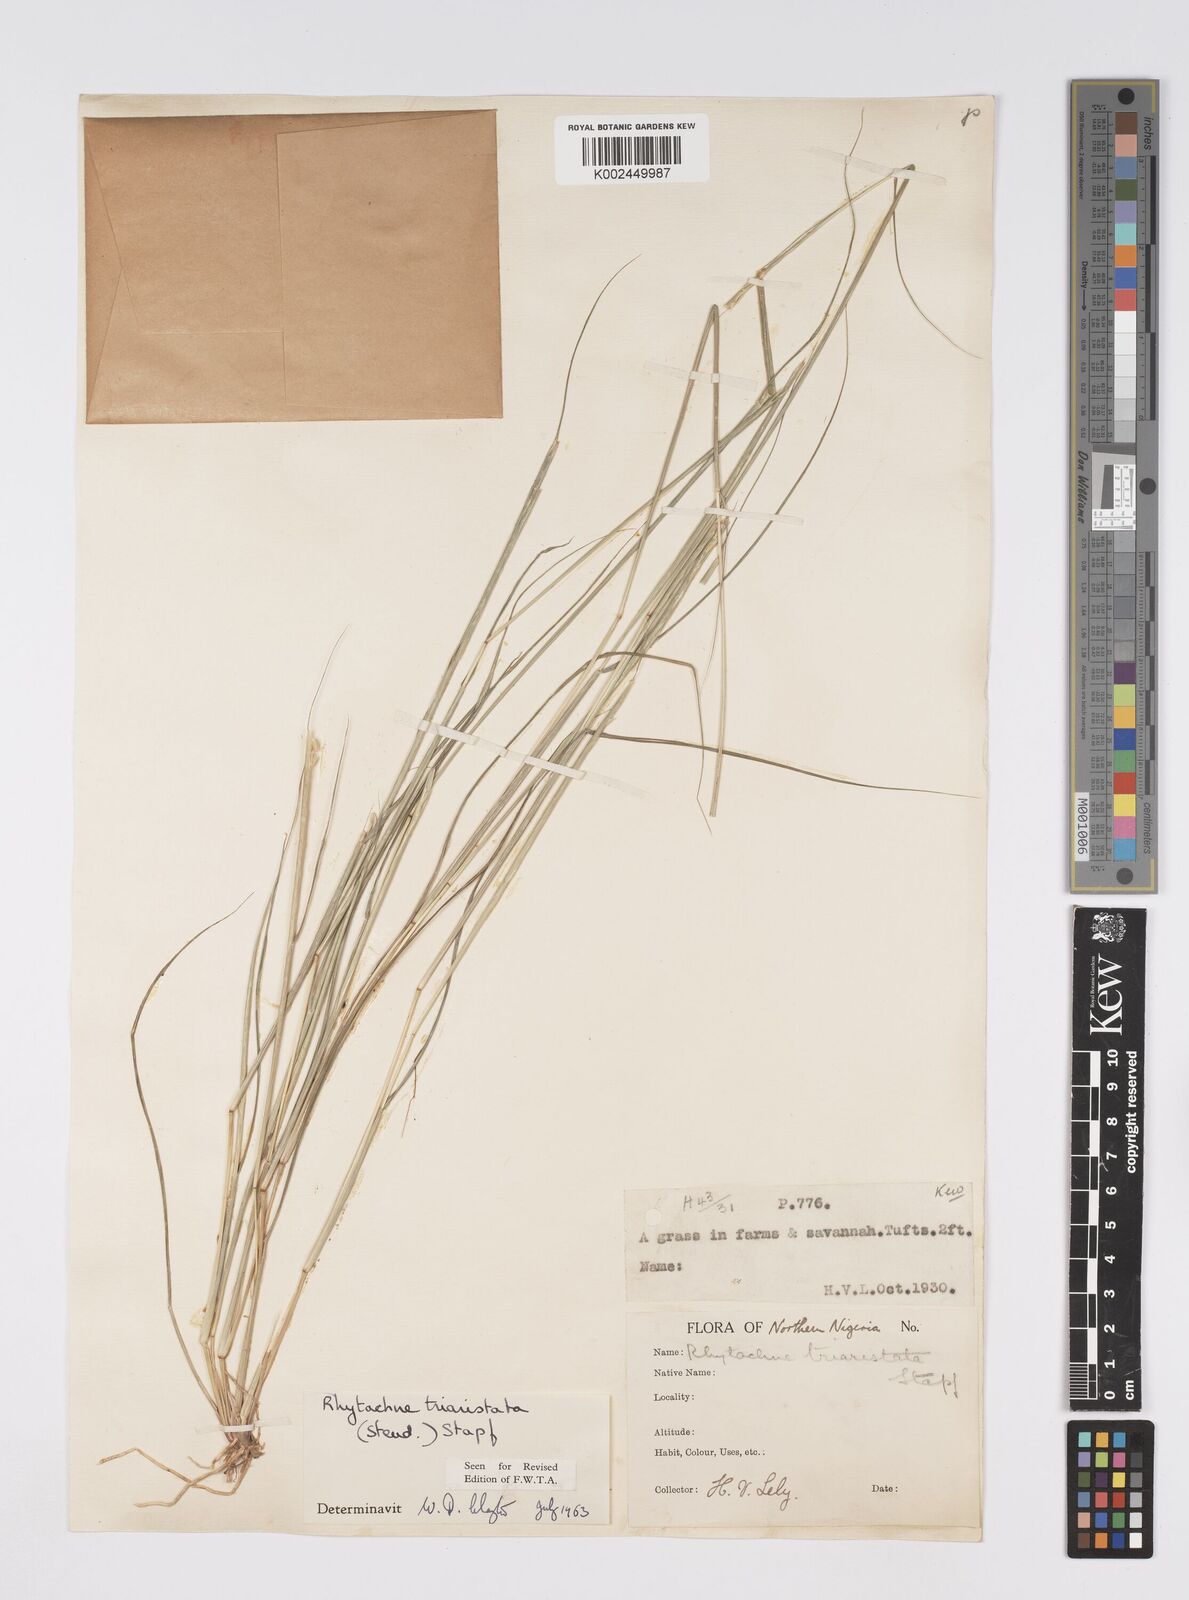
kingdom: Plantae
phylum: Tracheophyta
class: Liliopsida
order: Poales
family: Poaceae
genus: Rhytachne
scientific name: Rhytachne triaristata
